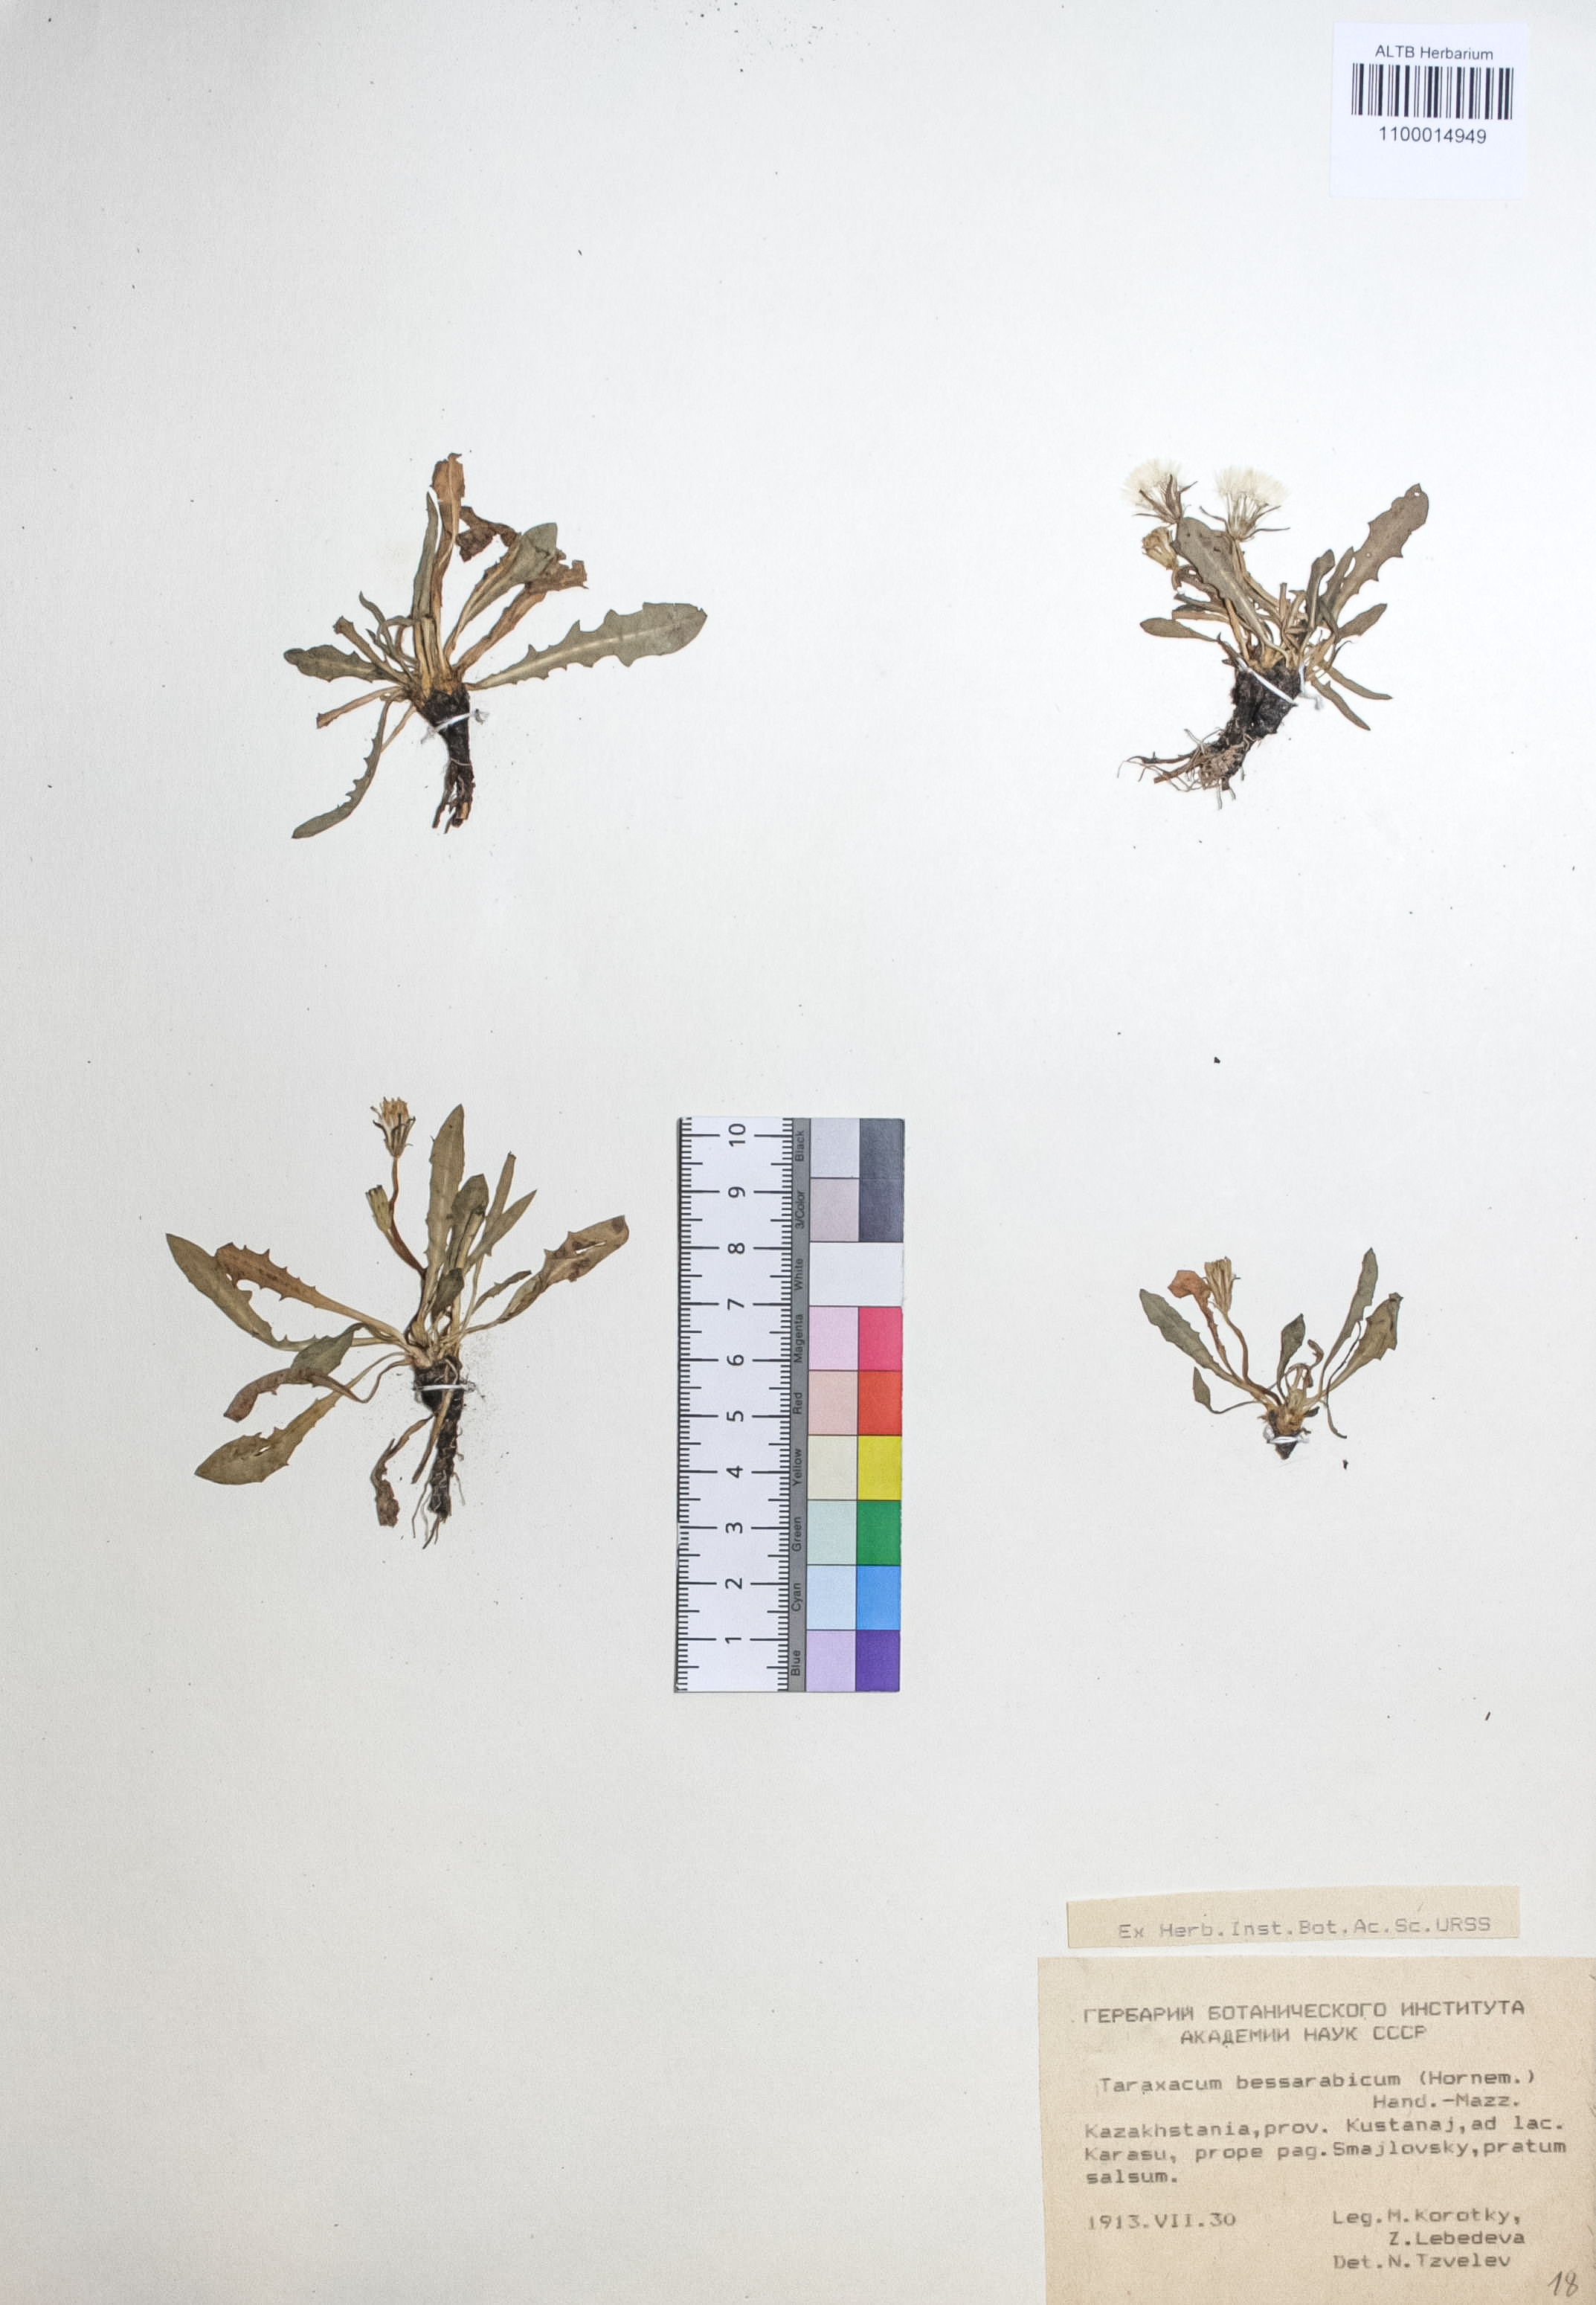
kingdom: Plantae
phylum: Tracheophyta
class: Magnoliopsida
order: Asterales
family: Asteraceae
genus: Taraxacum
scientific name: Taraxacum bessarabicum
